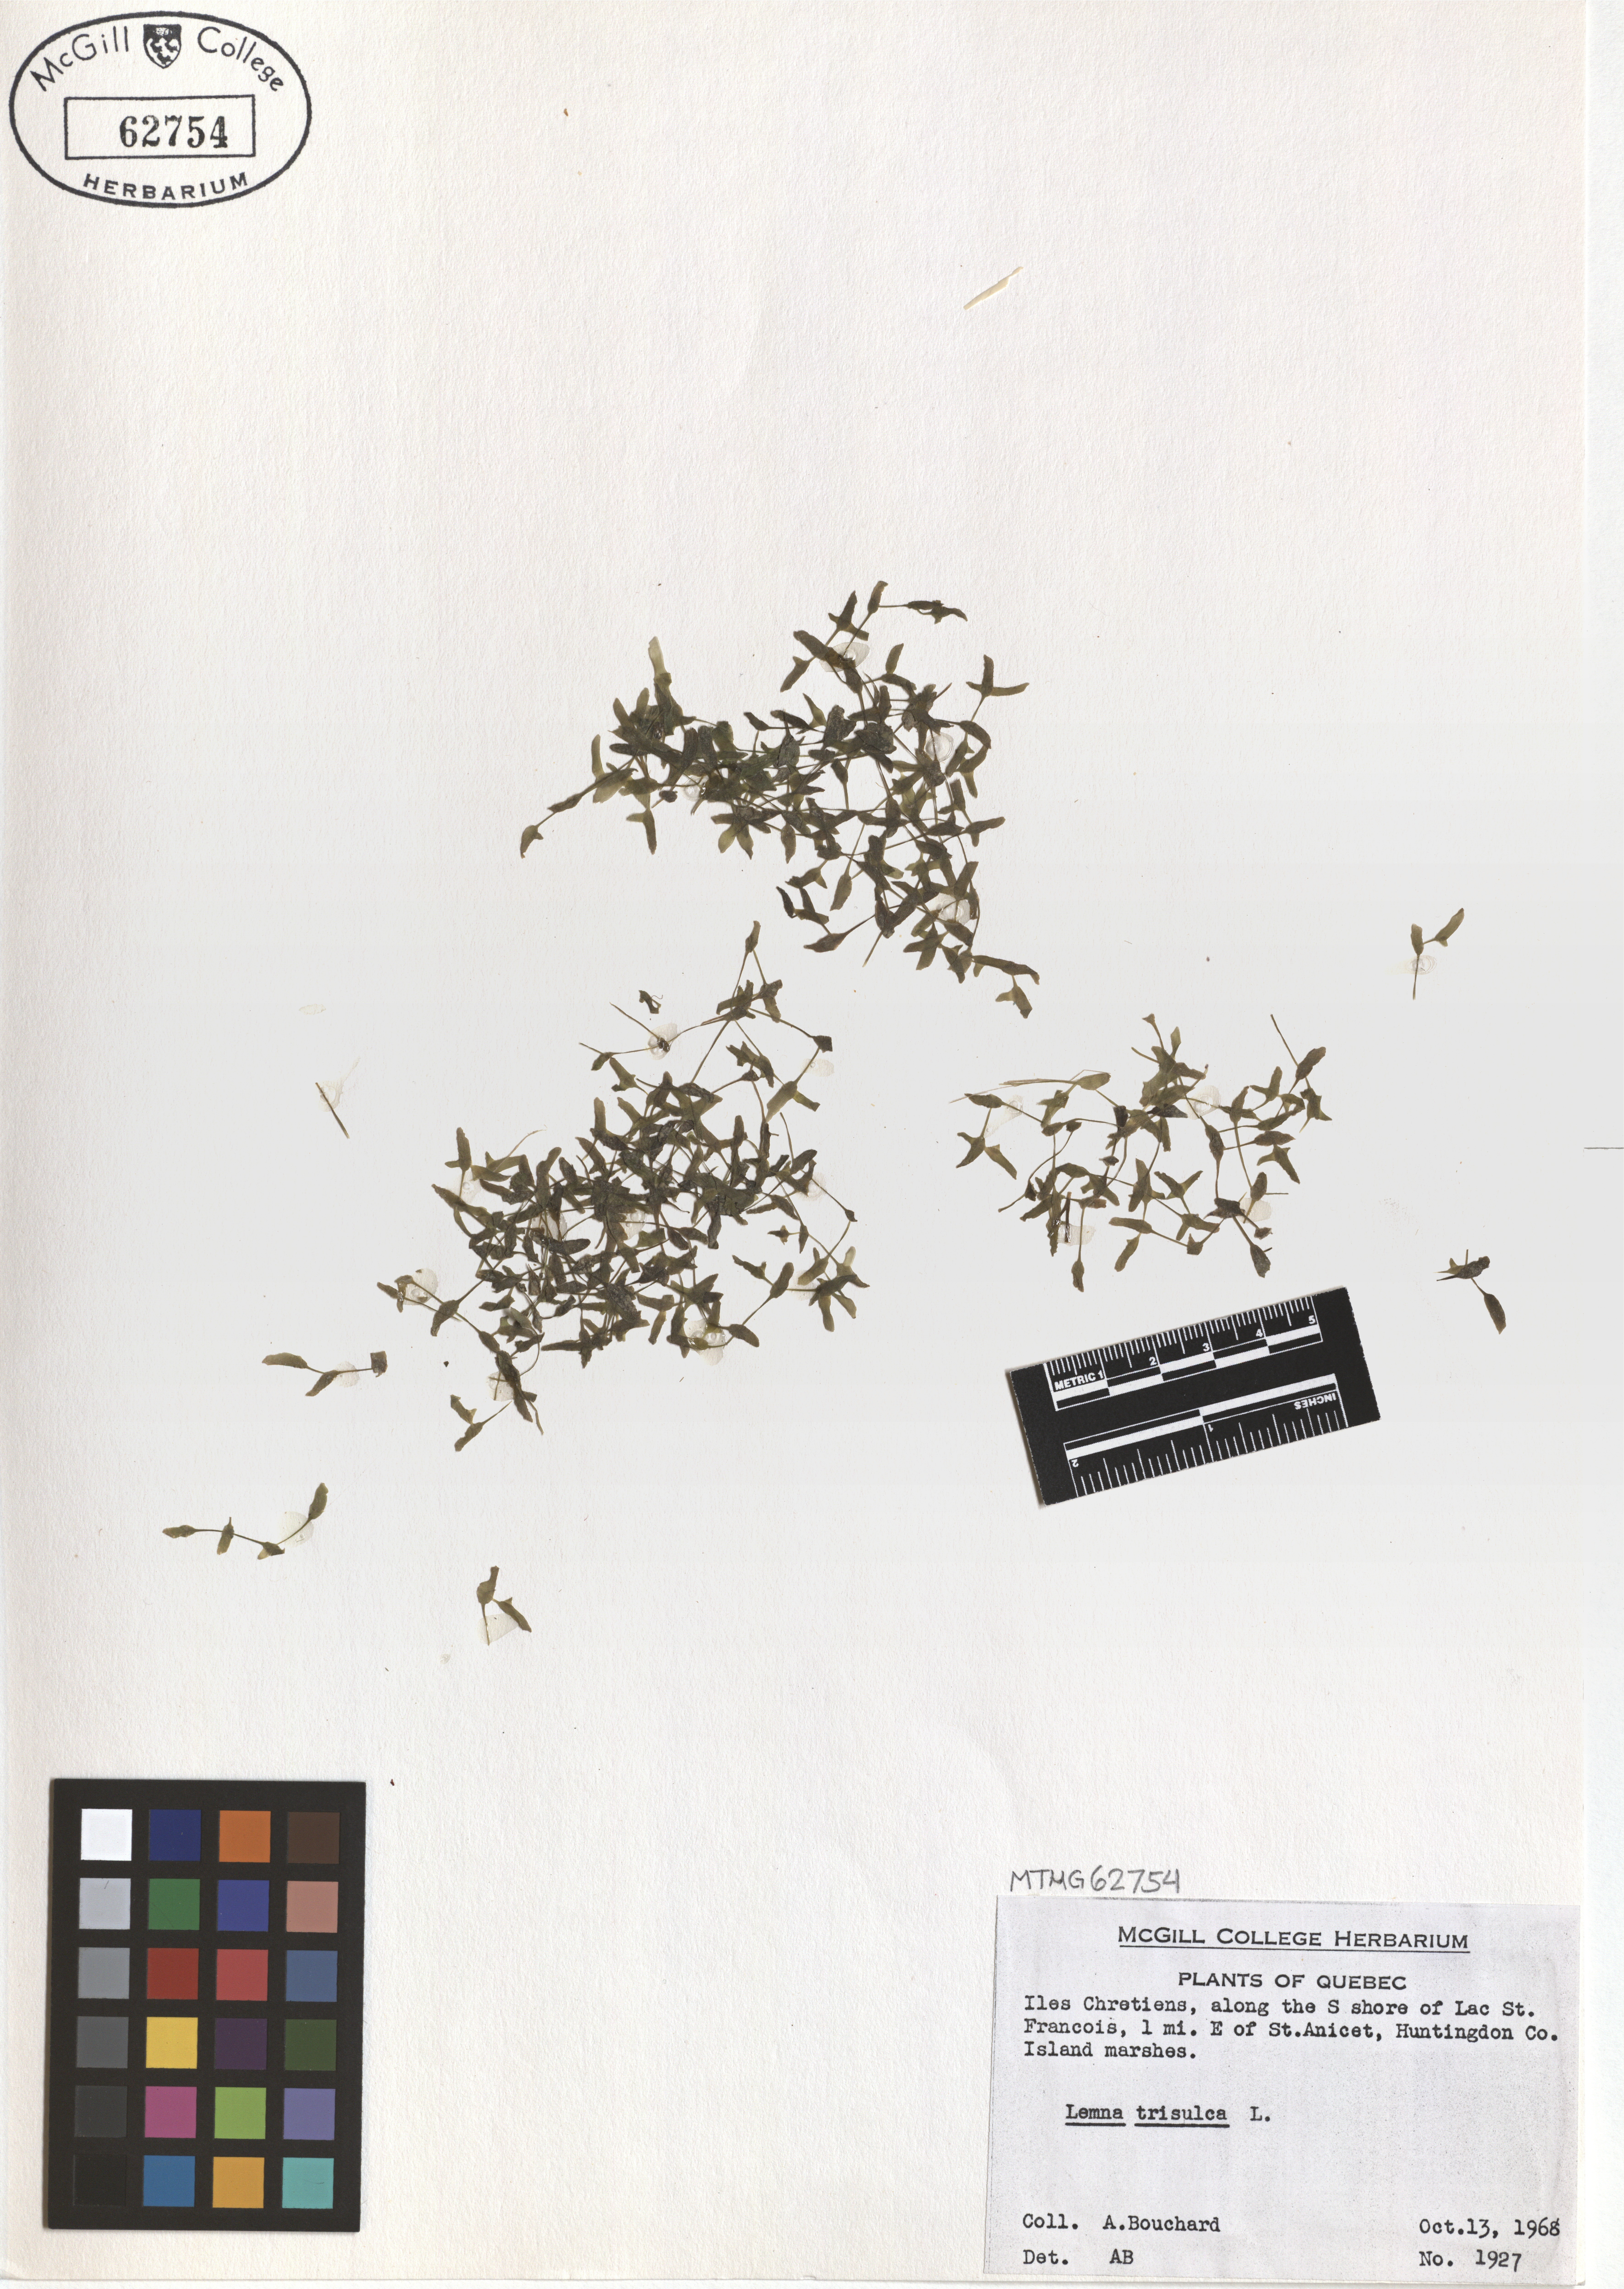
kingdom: Plantae
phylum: Tracheophyta
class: Liliopsida
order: Alismatales
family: Araceae
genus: Lemna
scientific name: Lemna trisulca
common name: Ivy-leaved duckweed
